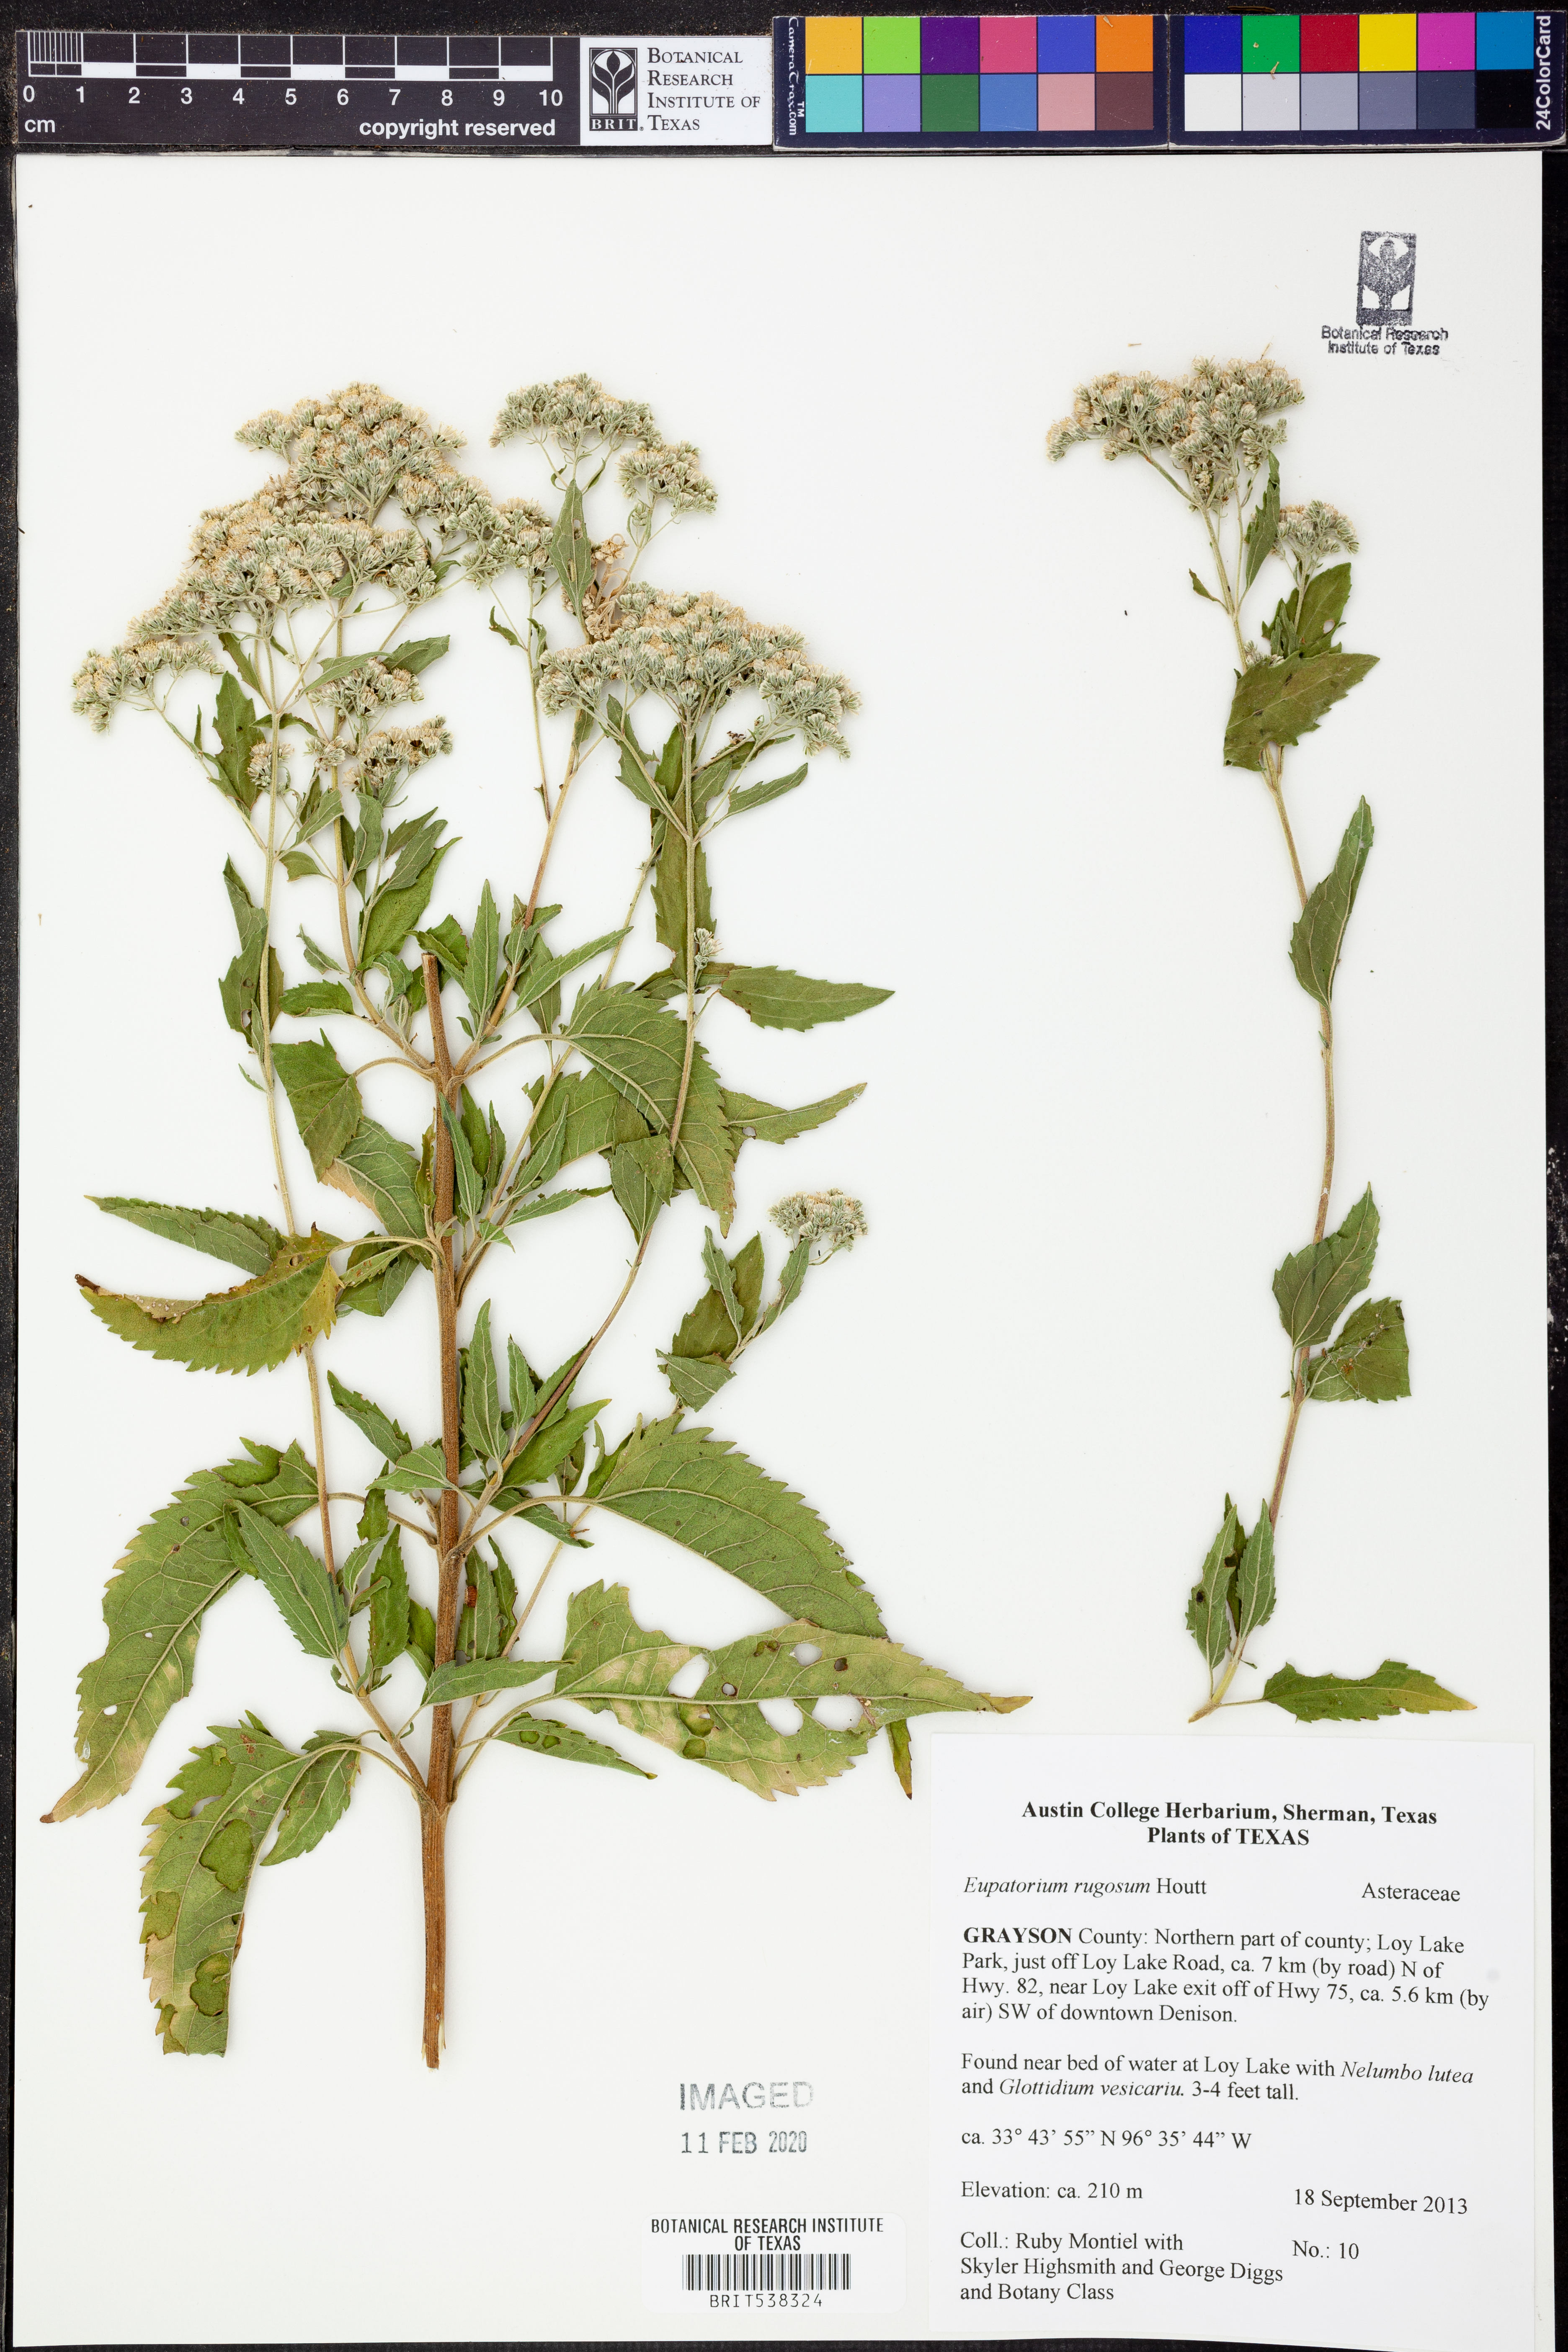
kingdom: Plantae
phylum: Tracheophyta
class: Magnoliopsida
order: Asterales
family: Asteraceae
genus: Cronquistianthus
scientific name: Cronquistianthus bulliferus
